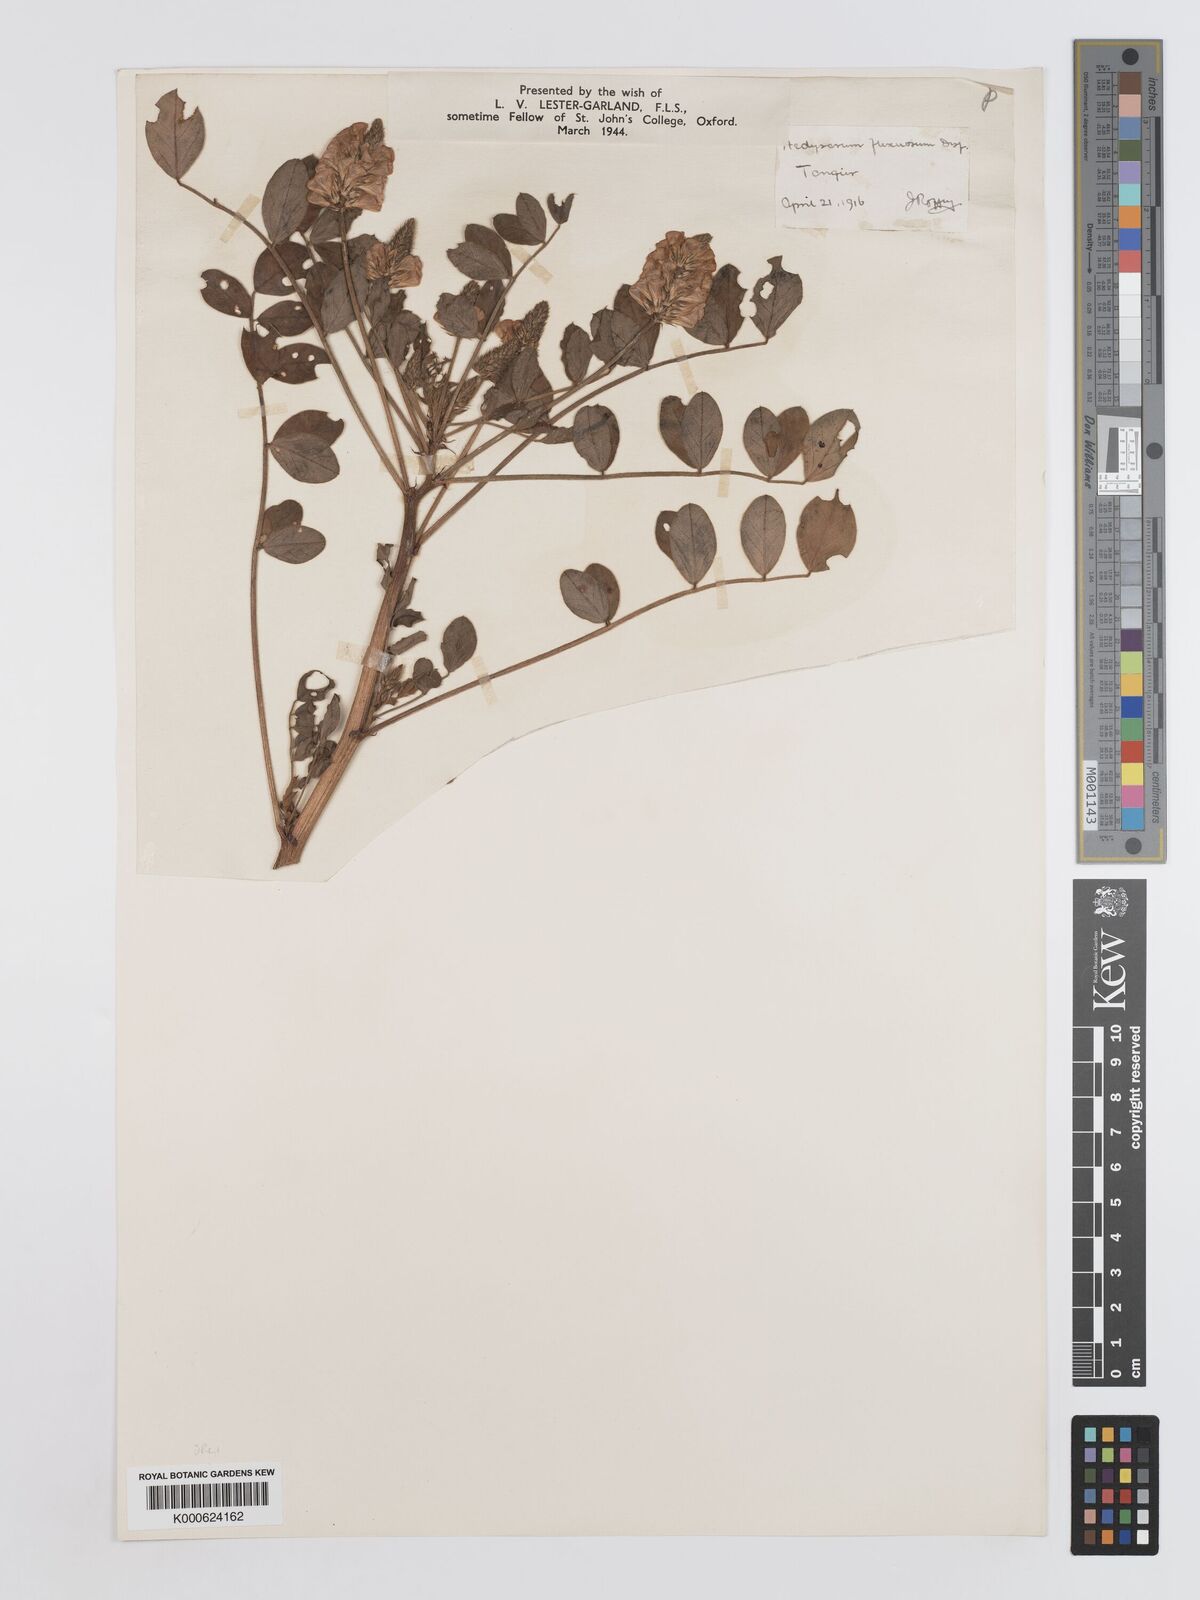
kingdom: Plantae
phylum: Tracheophyta
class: Magnoliopsida
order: Fabales
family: Fabaceae
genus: Sulla
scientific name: Sulla flexuosa
